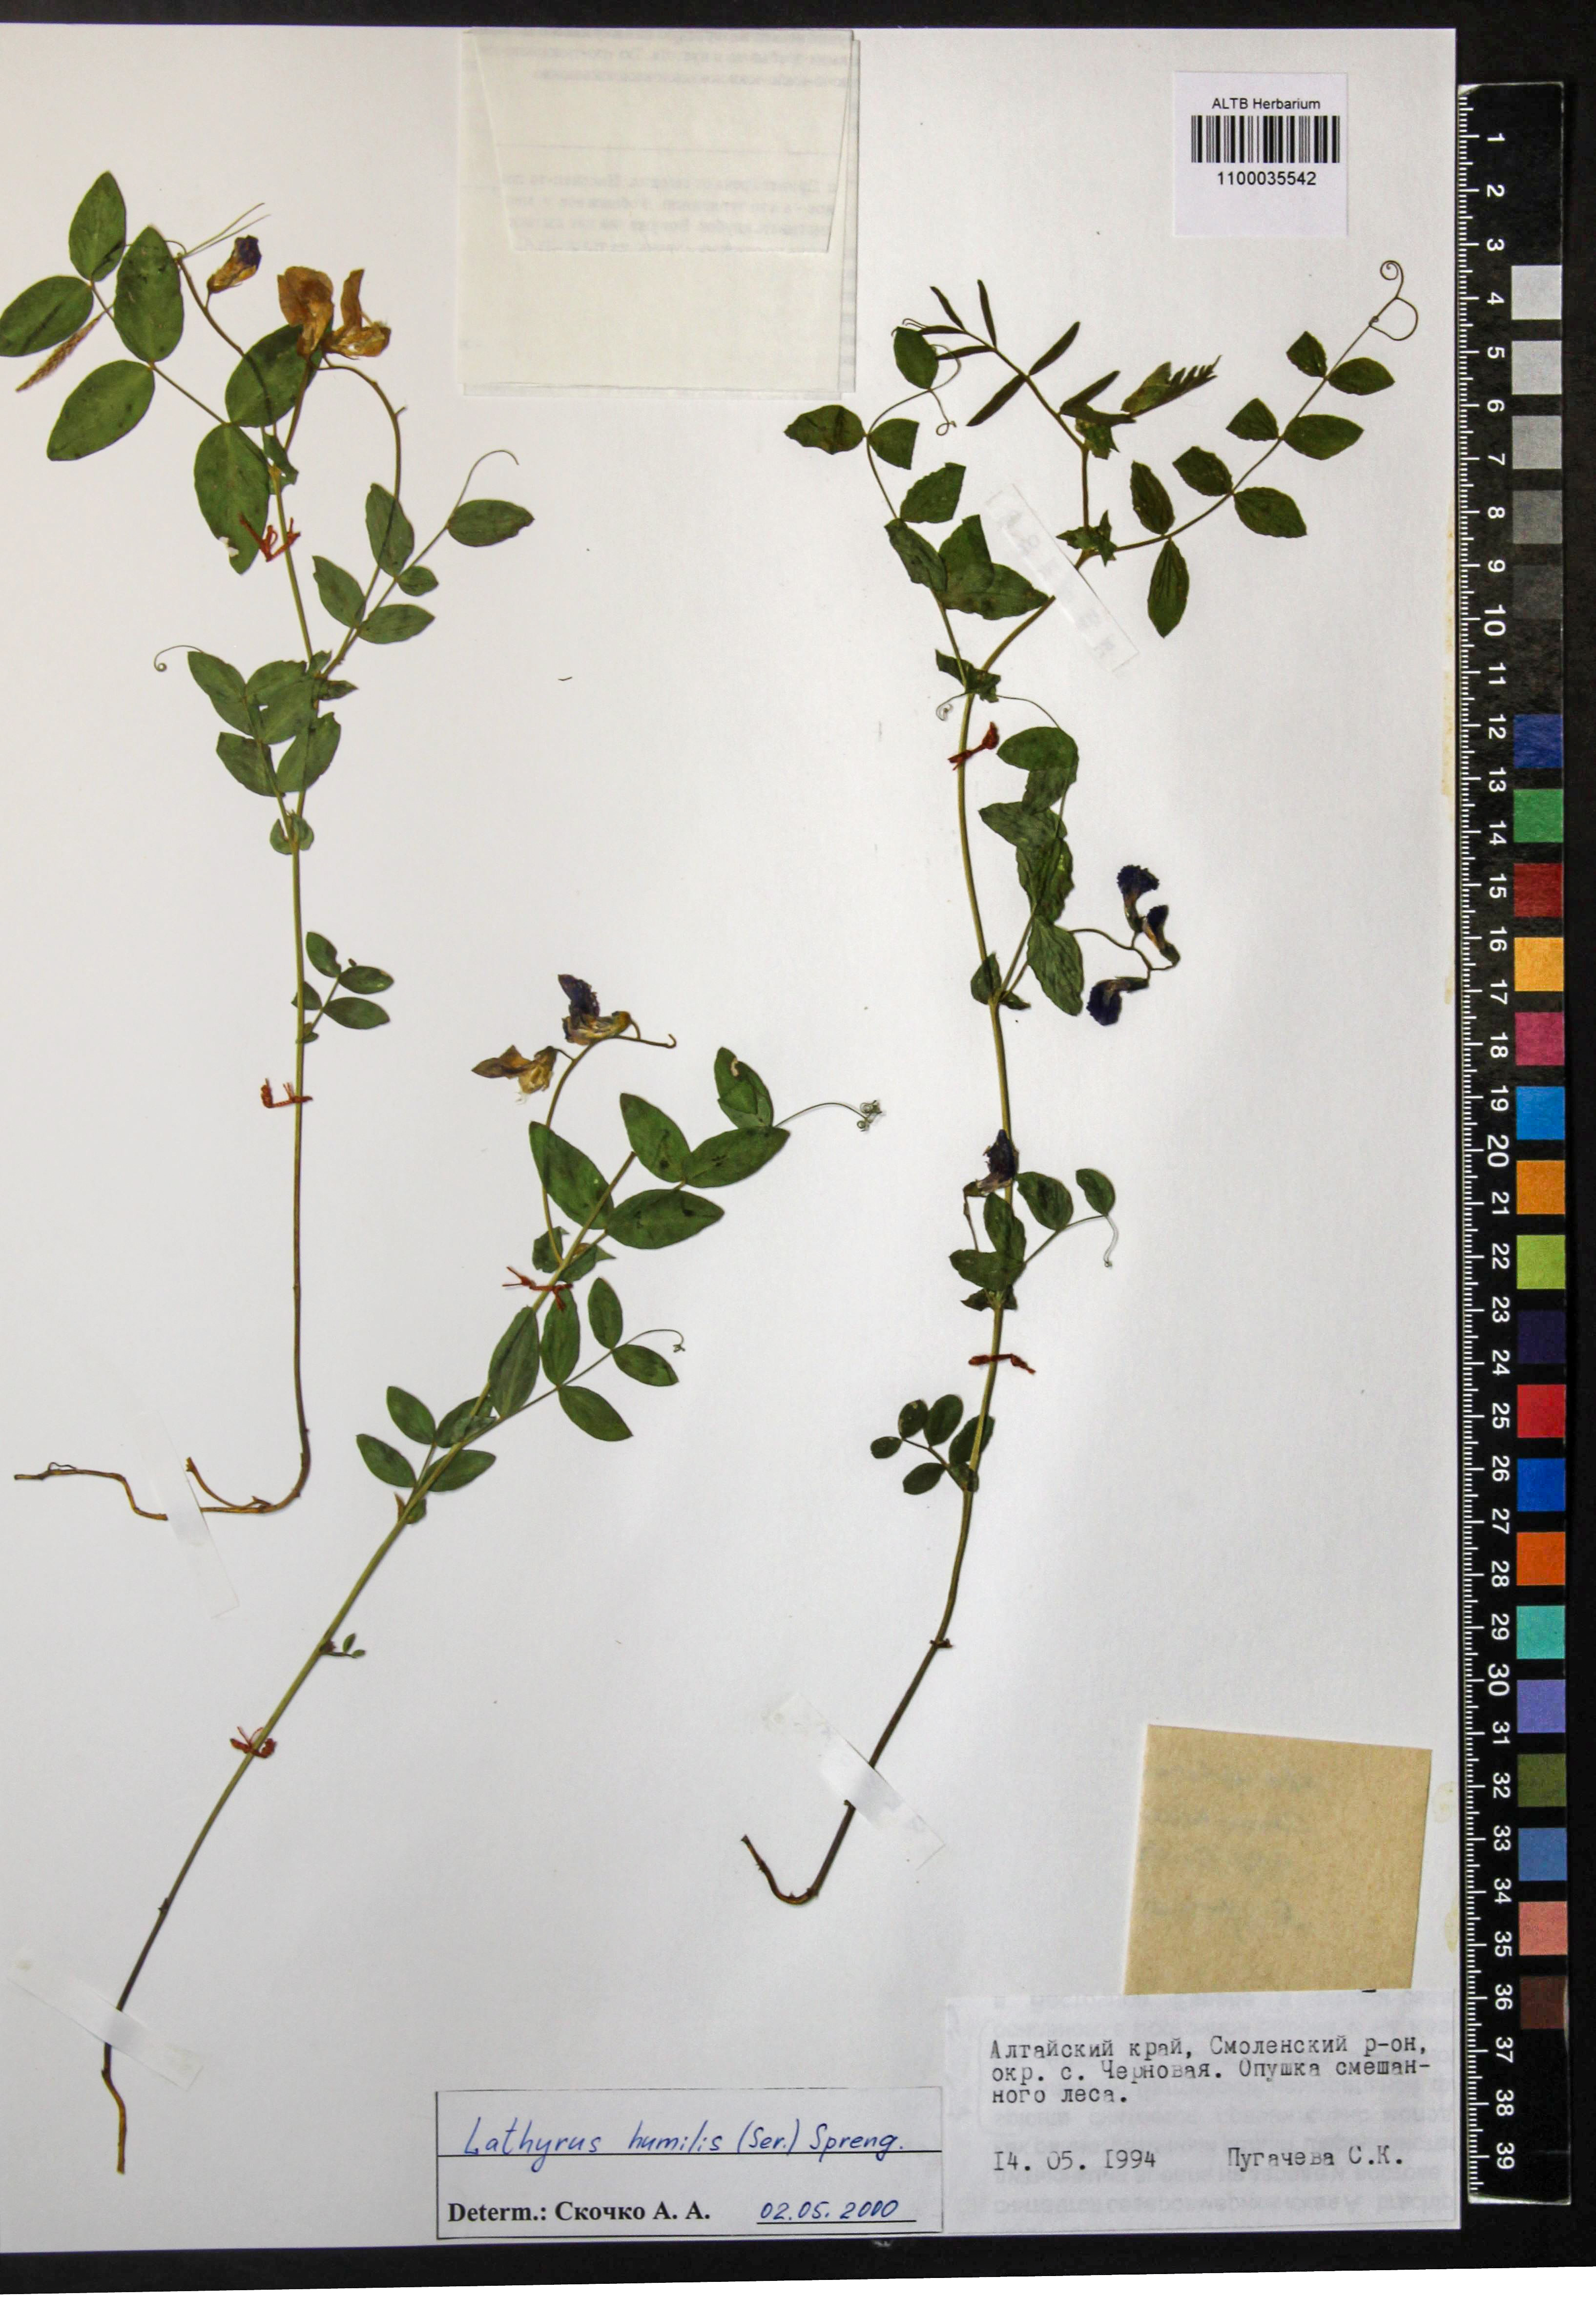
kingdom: Plantae
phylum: Tracheophyta
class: Magnoliopsida
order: Fabales
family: Fabaceae
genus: Lathyrus
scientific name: Lathyrus humilis
